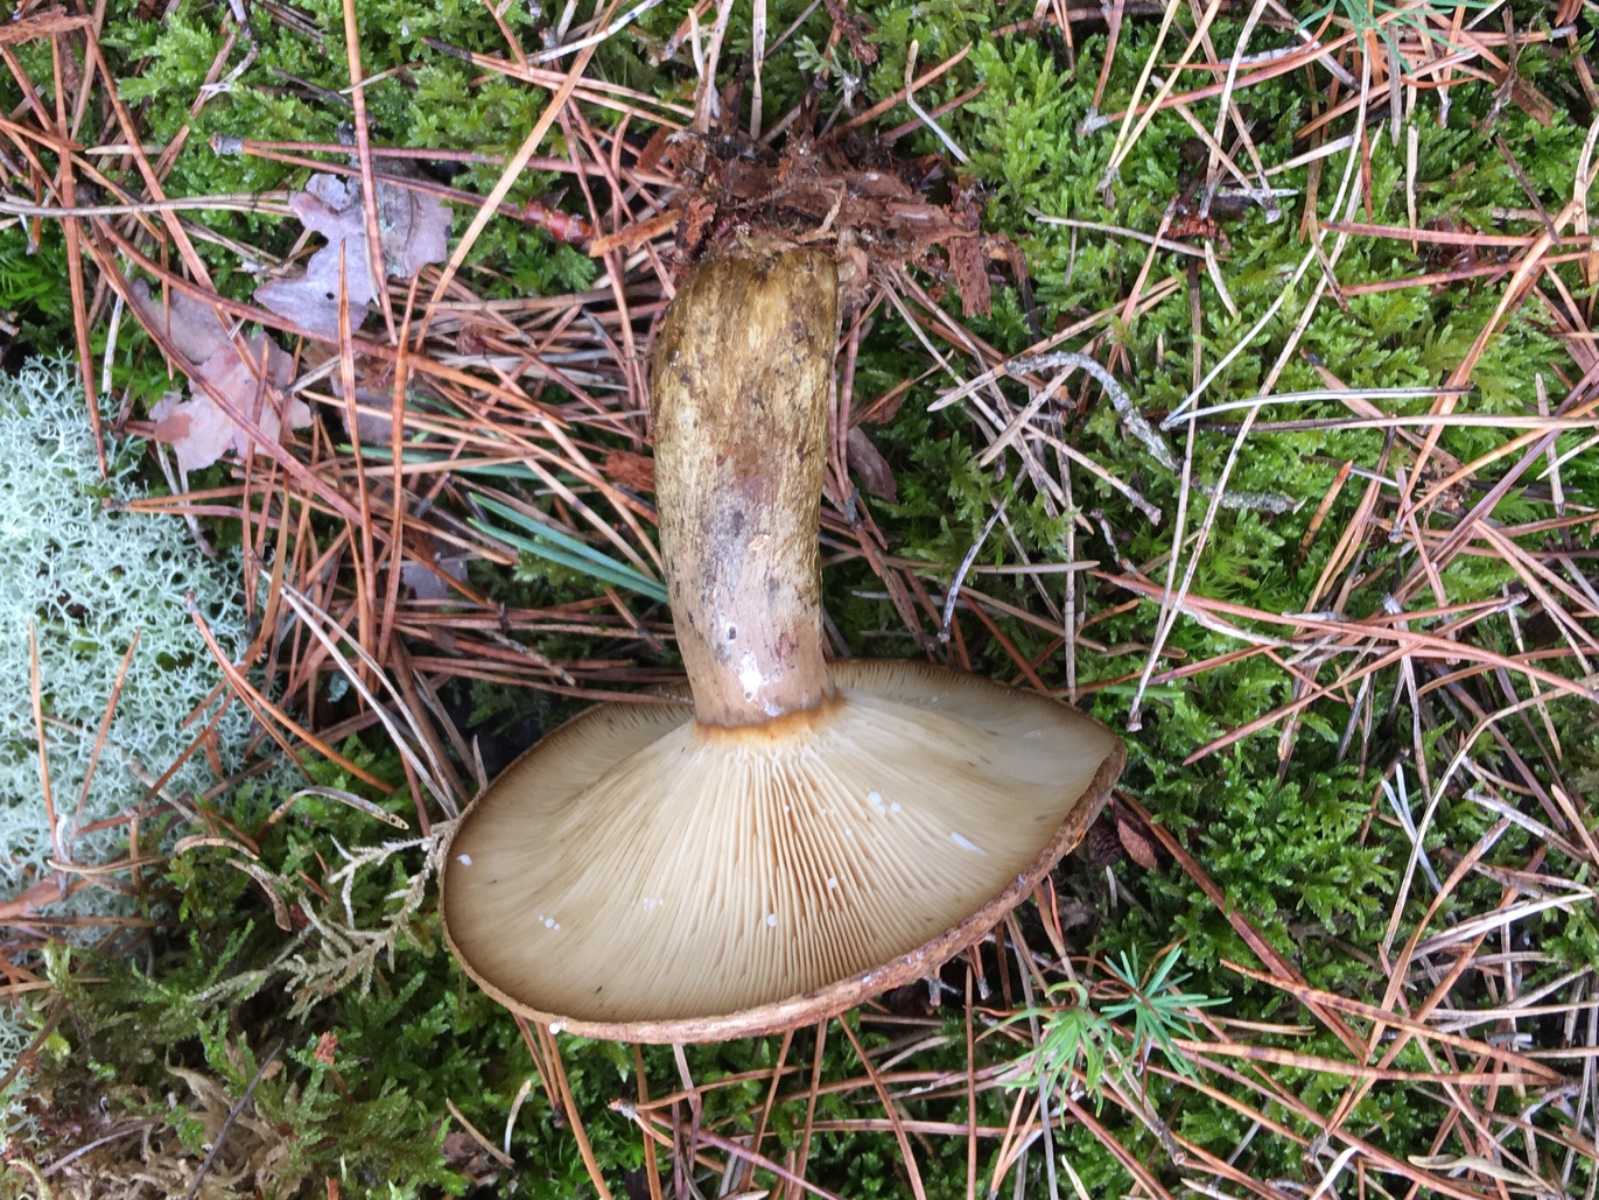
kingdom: Fungi
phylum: Basidiomycota
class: Agaricomycetes
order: Russulales
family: Russulaceae
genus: Lactarius
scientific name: Lactarius necator
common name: manddraber-mælkehat
